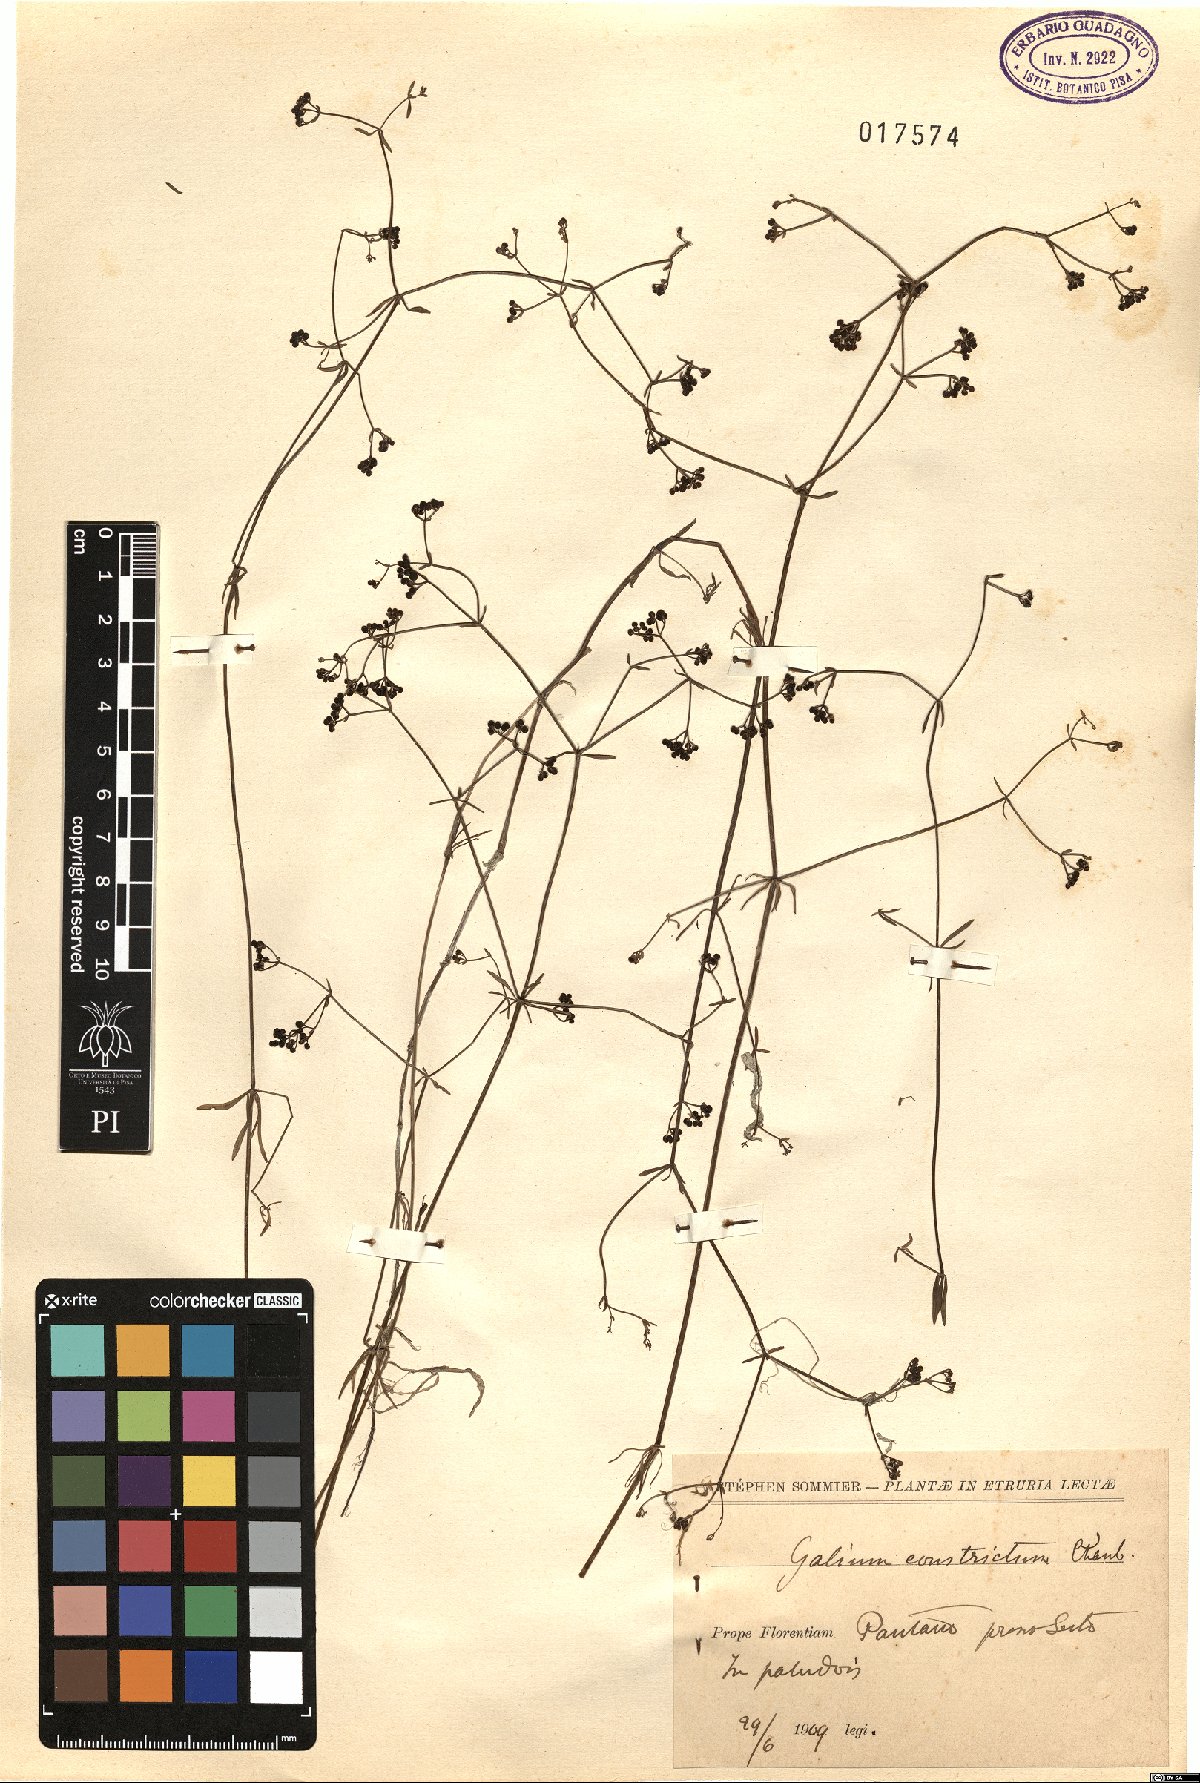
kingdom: Plantae
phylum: Tracheophyta
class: Magnoliopsida
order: Gentianales
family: Rubiaceae
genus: Galium
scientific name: Galium debile
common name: Slender marsh-bedstraw
